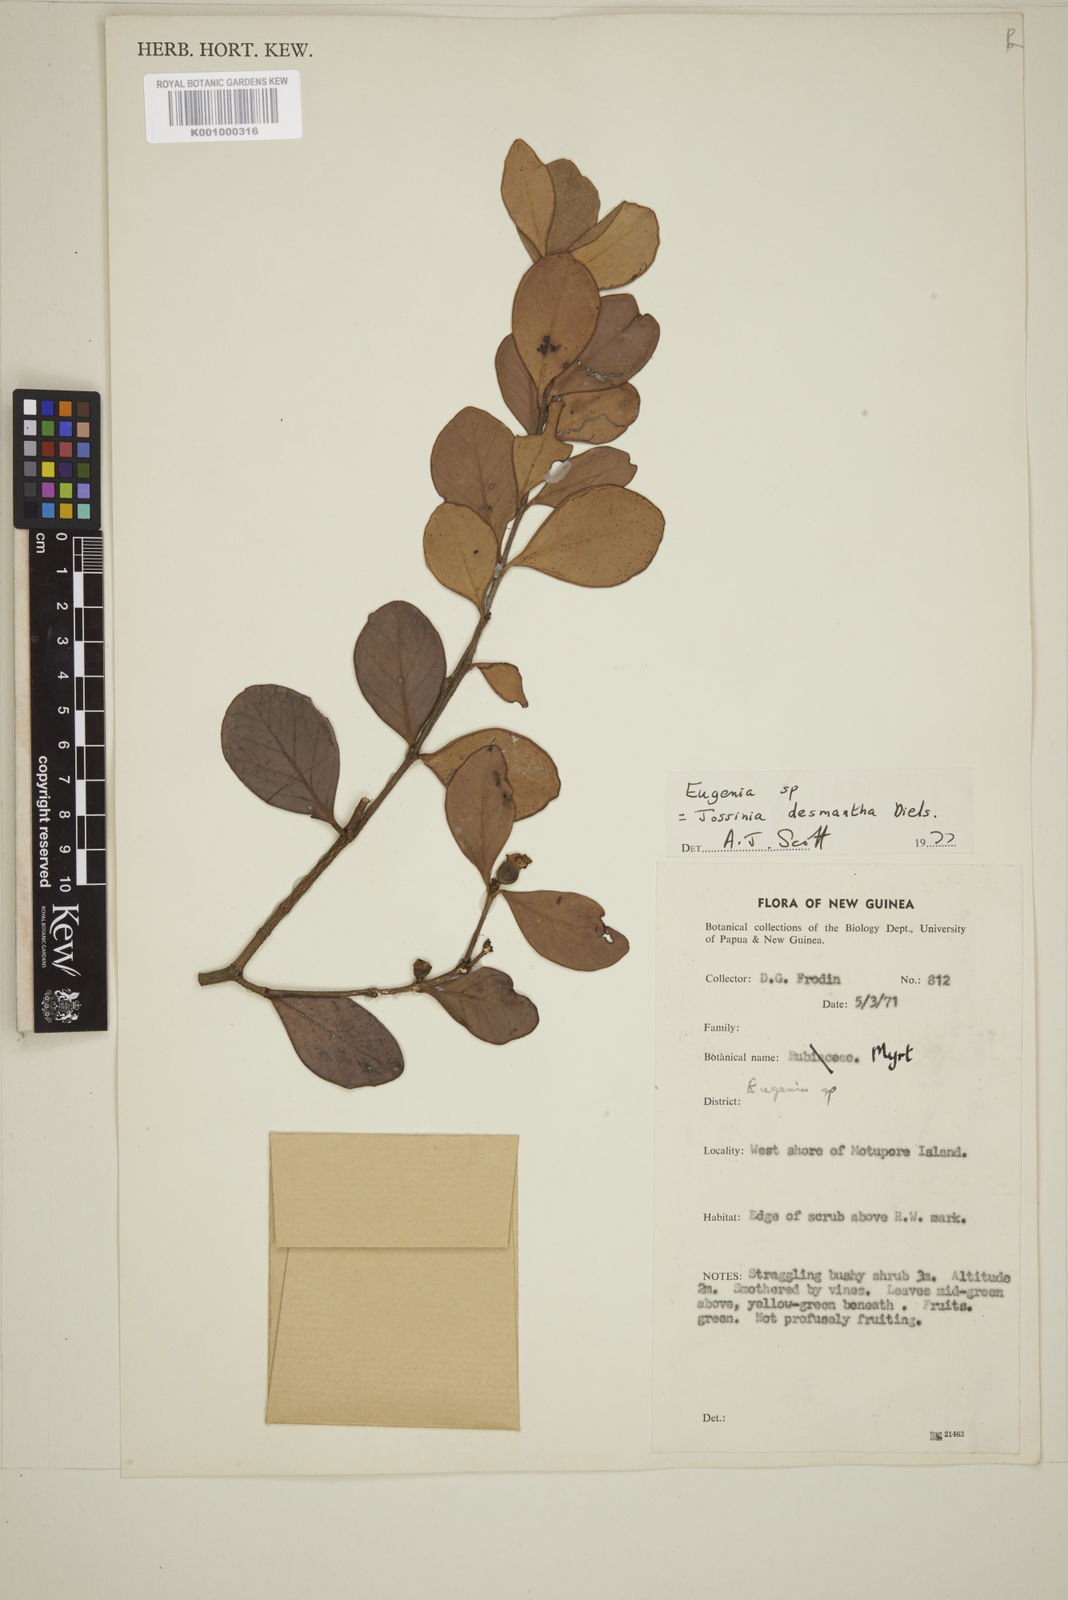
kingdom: Plantae
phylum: Tracheophyta
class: Magnoliopsida
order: Myrtales
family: Myrtaceae
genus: Eugenia
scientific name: Eugenia reinwardtiana
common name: Cedar bay-cherry
